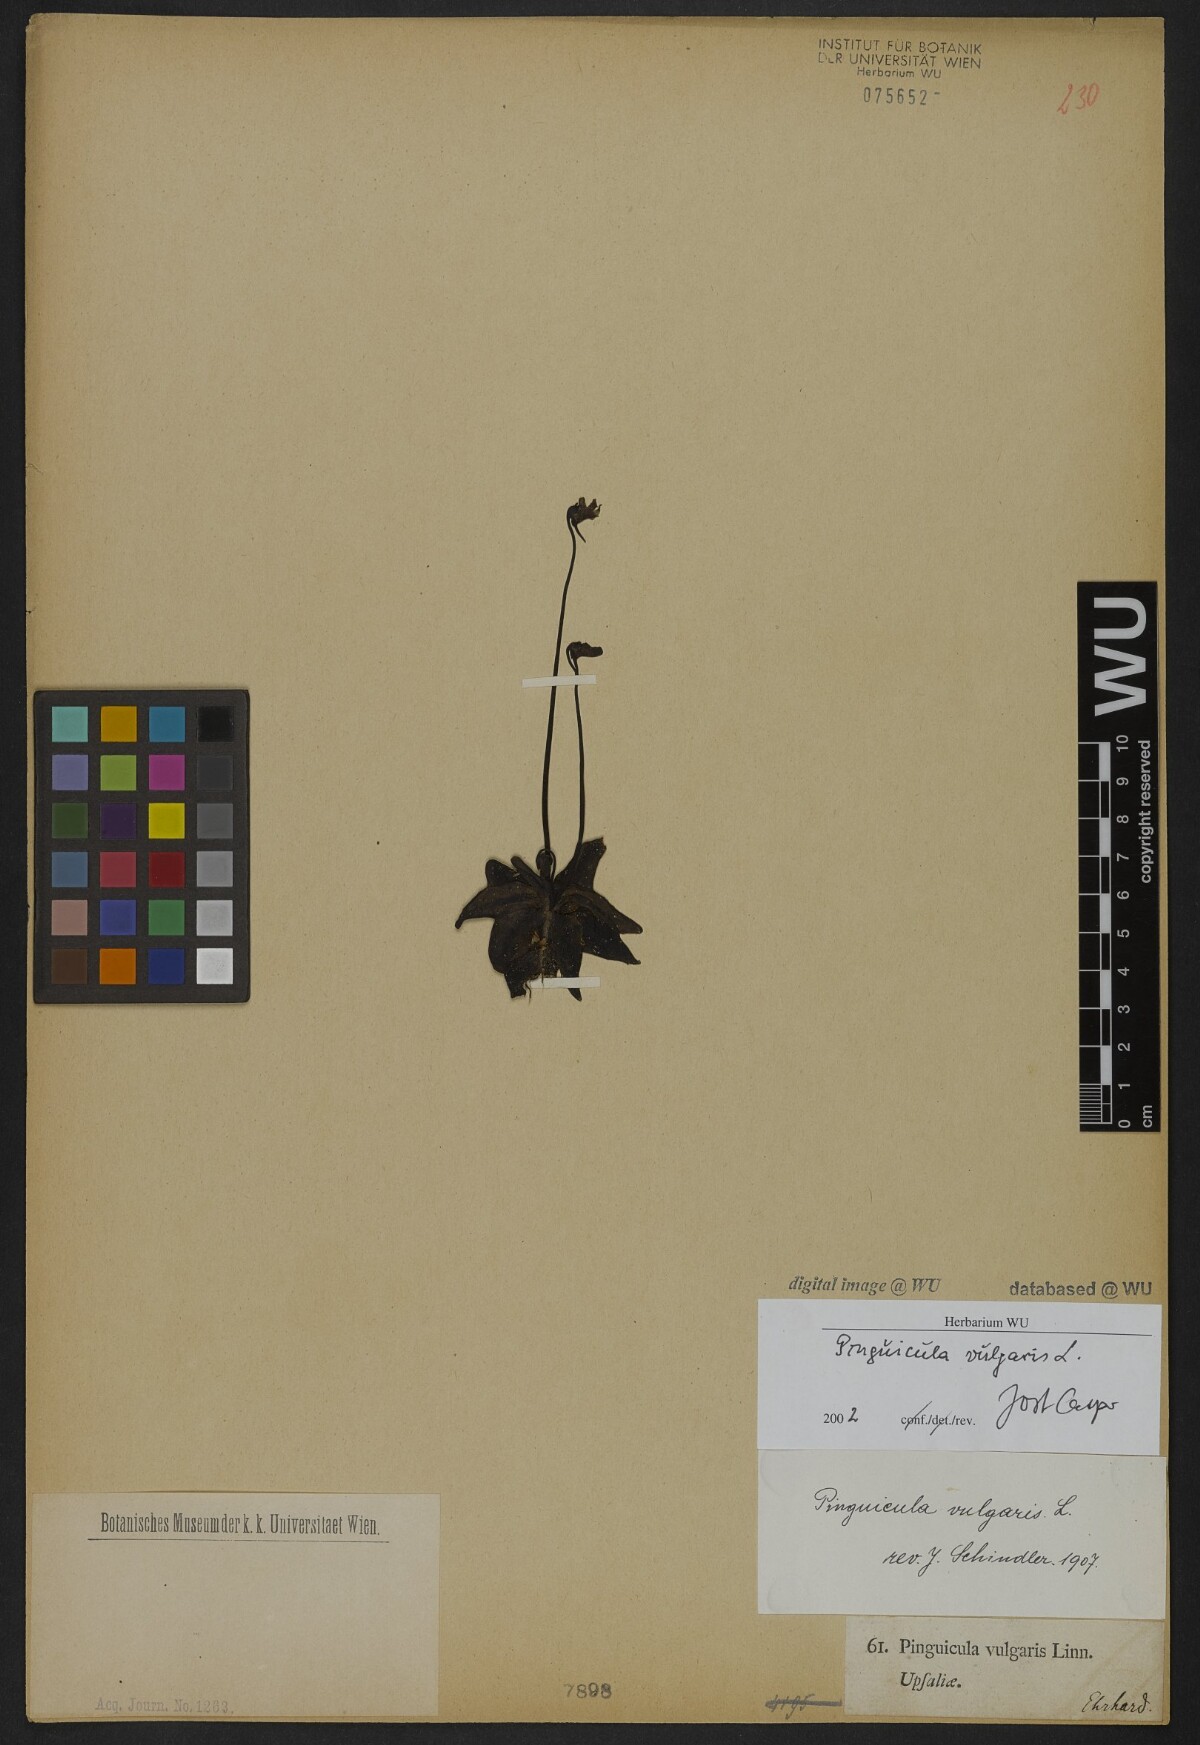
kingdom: Plantae
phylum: Tracheophyta
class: Magnoliopsida
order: Lamiales
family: Lentibulariaceae
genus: Pinguicula
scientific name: Pinguicula vulgaris
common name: Common butterwort
